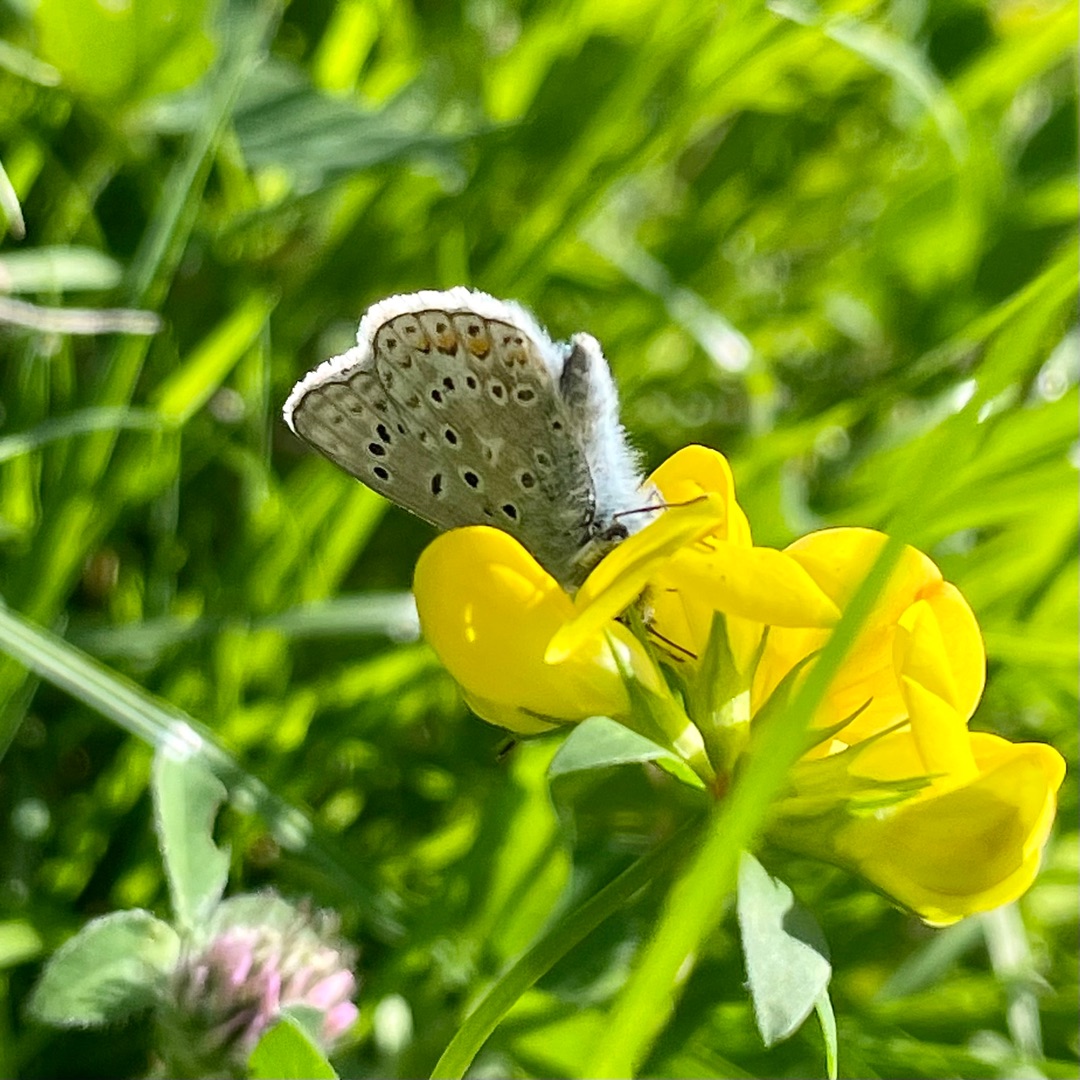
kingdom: Animalia
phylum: Arthropoda
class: Insecta
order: Lepidoptera
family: Lycaenidae
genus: Polyommatus
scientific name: Polyommatus icarus
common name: Almindelig blåfugl
